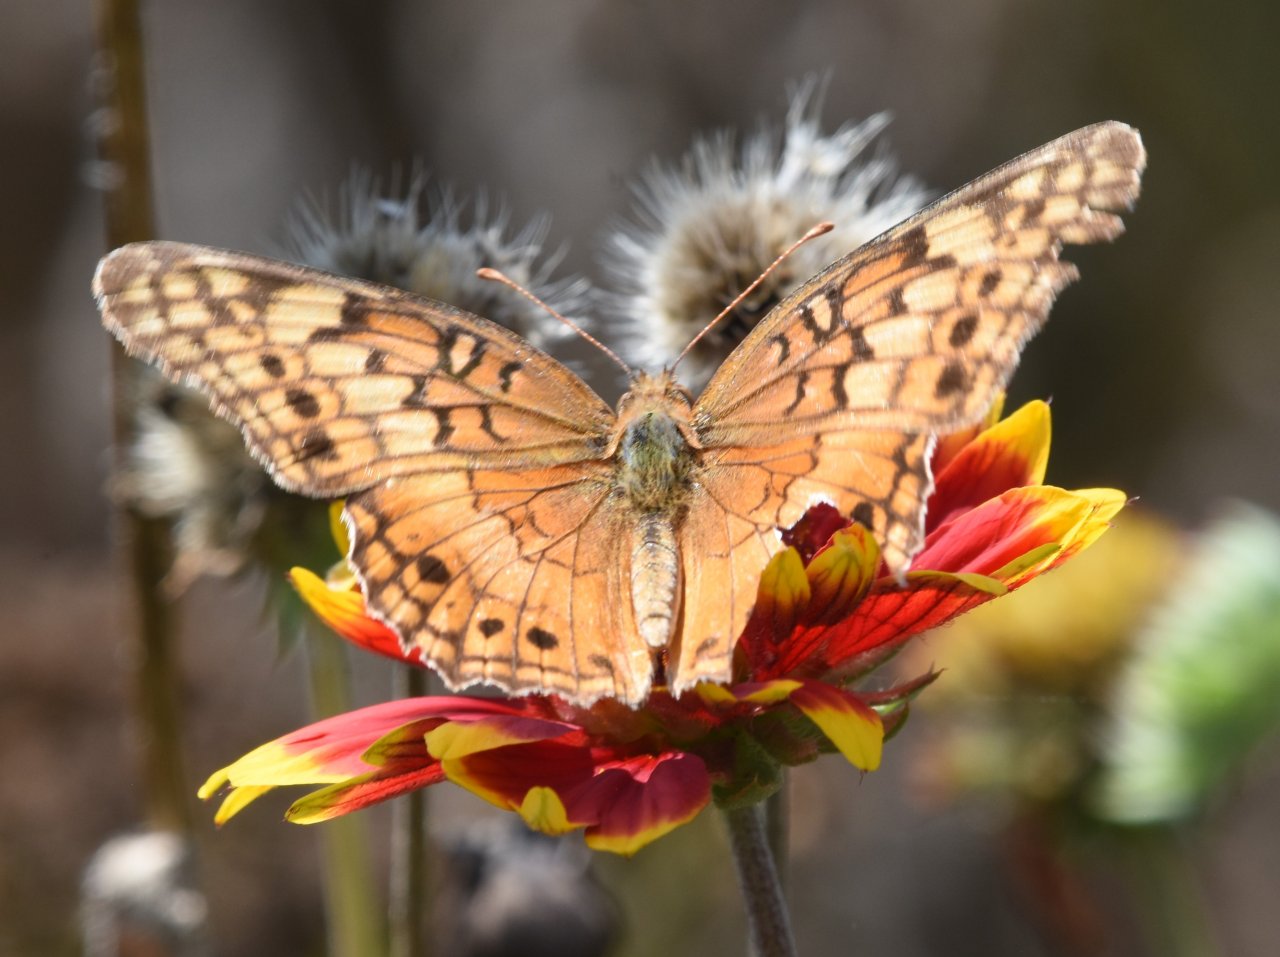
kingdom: Animalia
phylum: Arthropoda
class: Insecta
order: Lepidoptera
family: Nymphalidae
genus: Euptoieta
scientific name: Euptoieta claudia
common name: Variegated Fritillary
